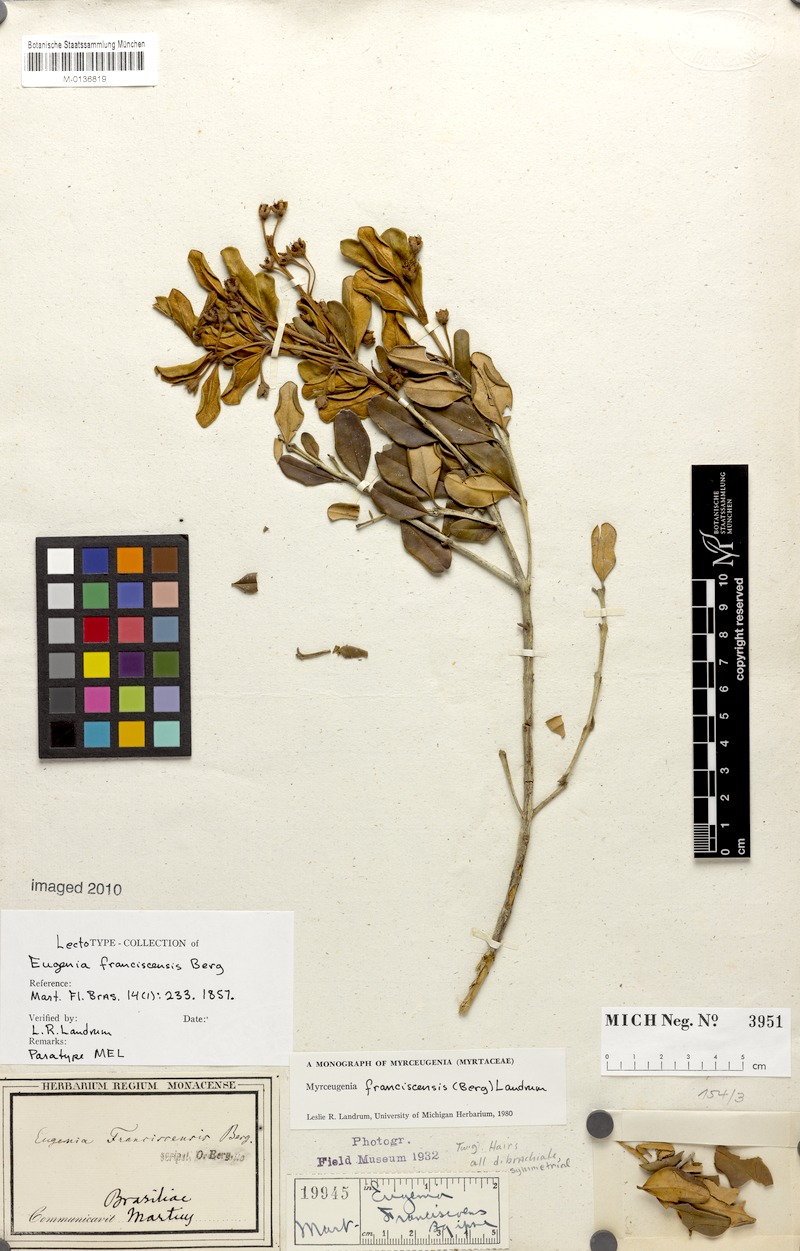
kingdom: Plantae
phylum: Tracheophyta
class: Magnoliopsida
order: Myrtales
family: Myrtaceae
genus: Myrceugenia
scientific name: Myrceugenia franciscensis
